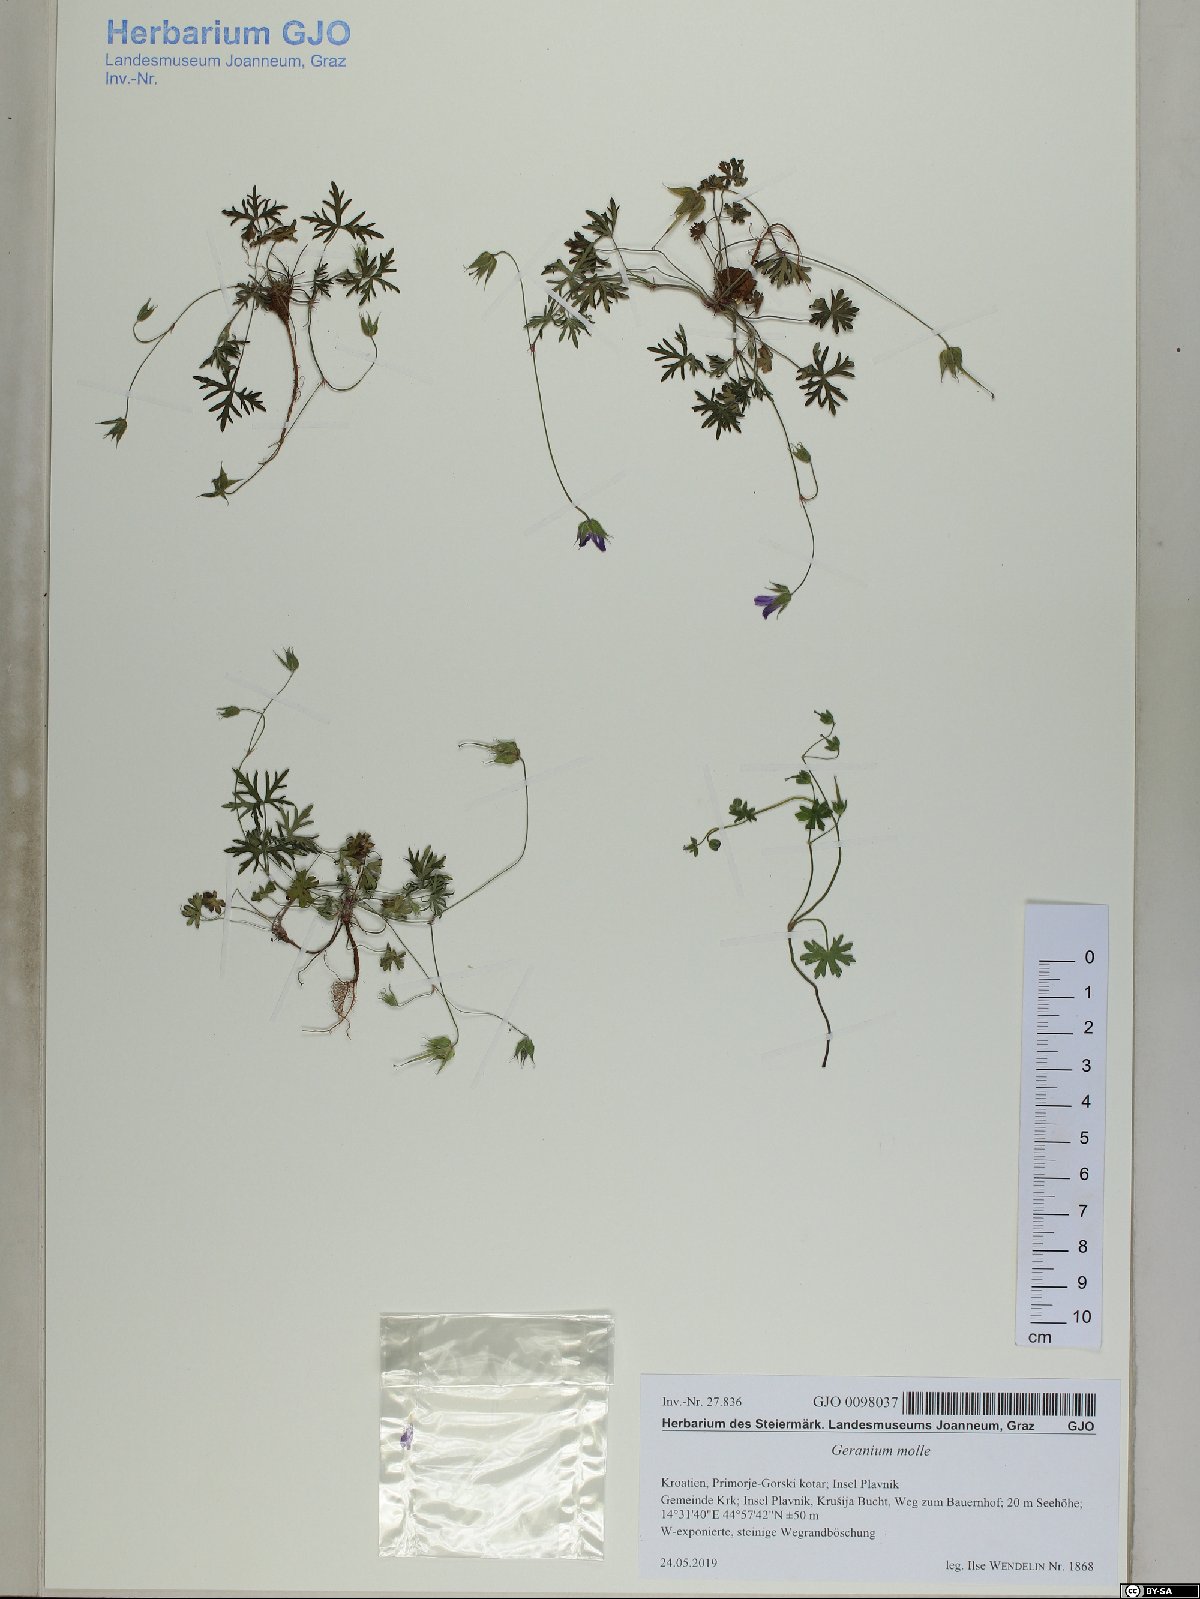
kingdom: Plantae
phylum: Tracheophyta
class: Magnoliopsida
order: Geraniales
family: Geraniaceae
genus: Geranium
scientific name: Geranium columbinum
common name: Long-stalked crane's-bill
